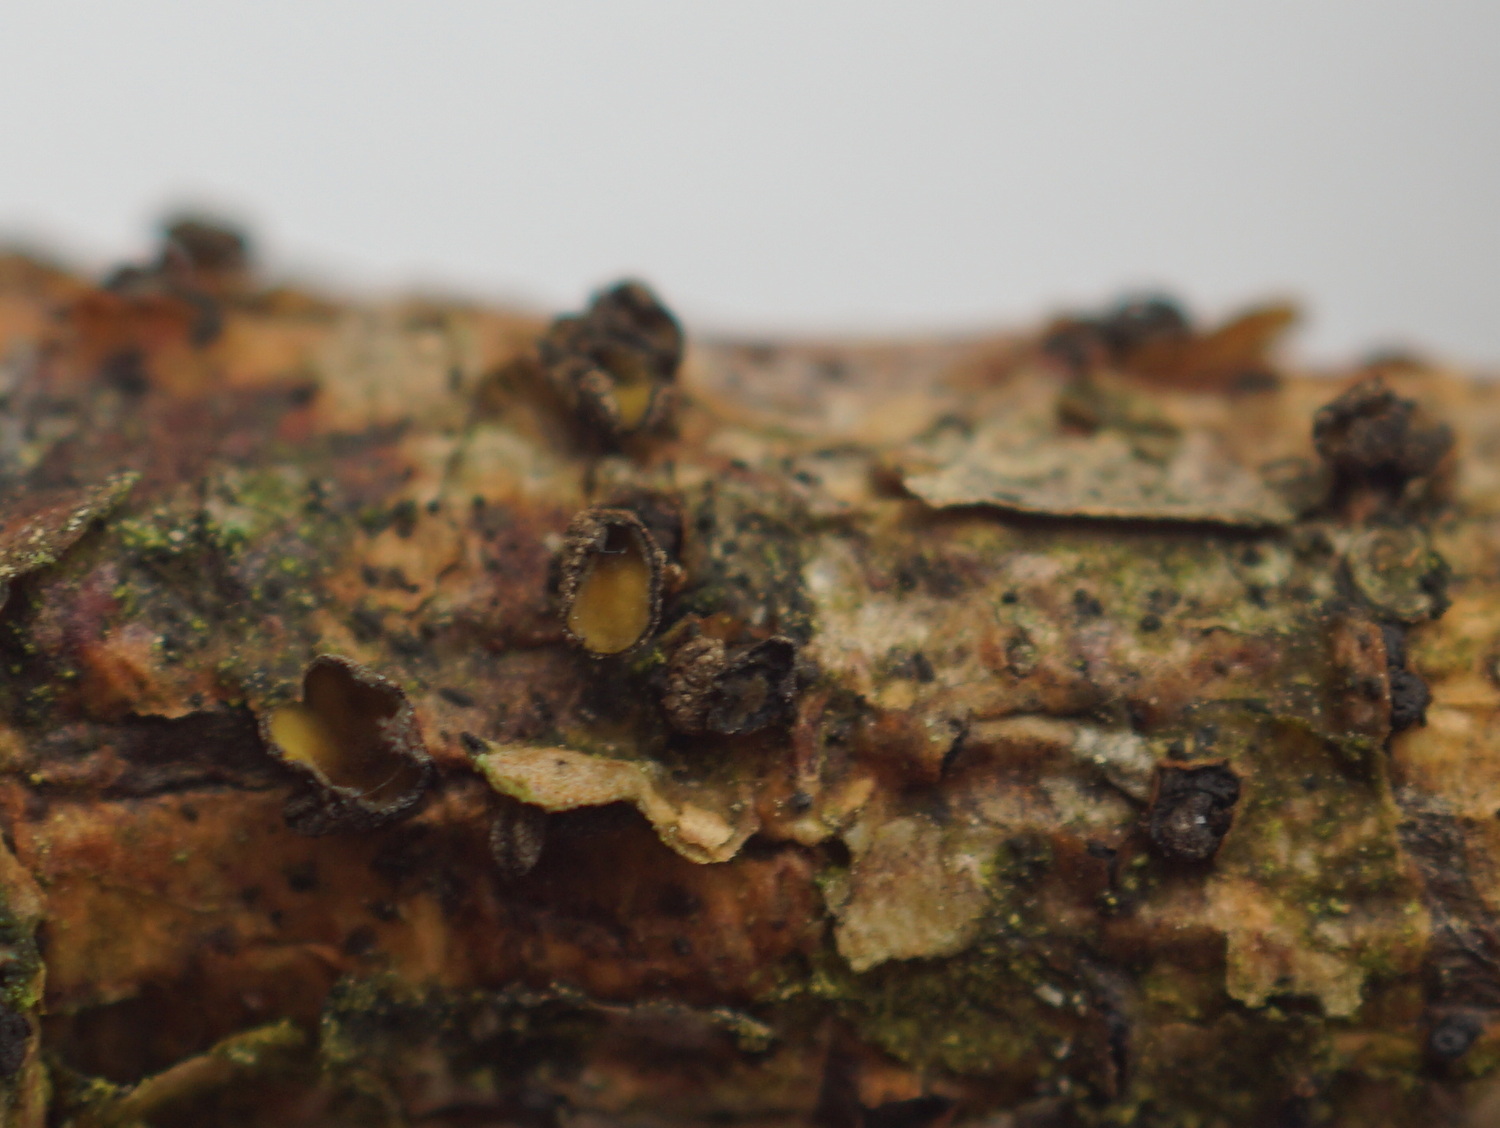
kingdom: Fungi
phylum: Ascomycota
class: Leotiomycetes
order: Helotiales
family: Cenangiaceae
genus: Cenangium
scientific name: Cenangium ferruginosum
